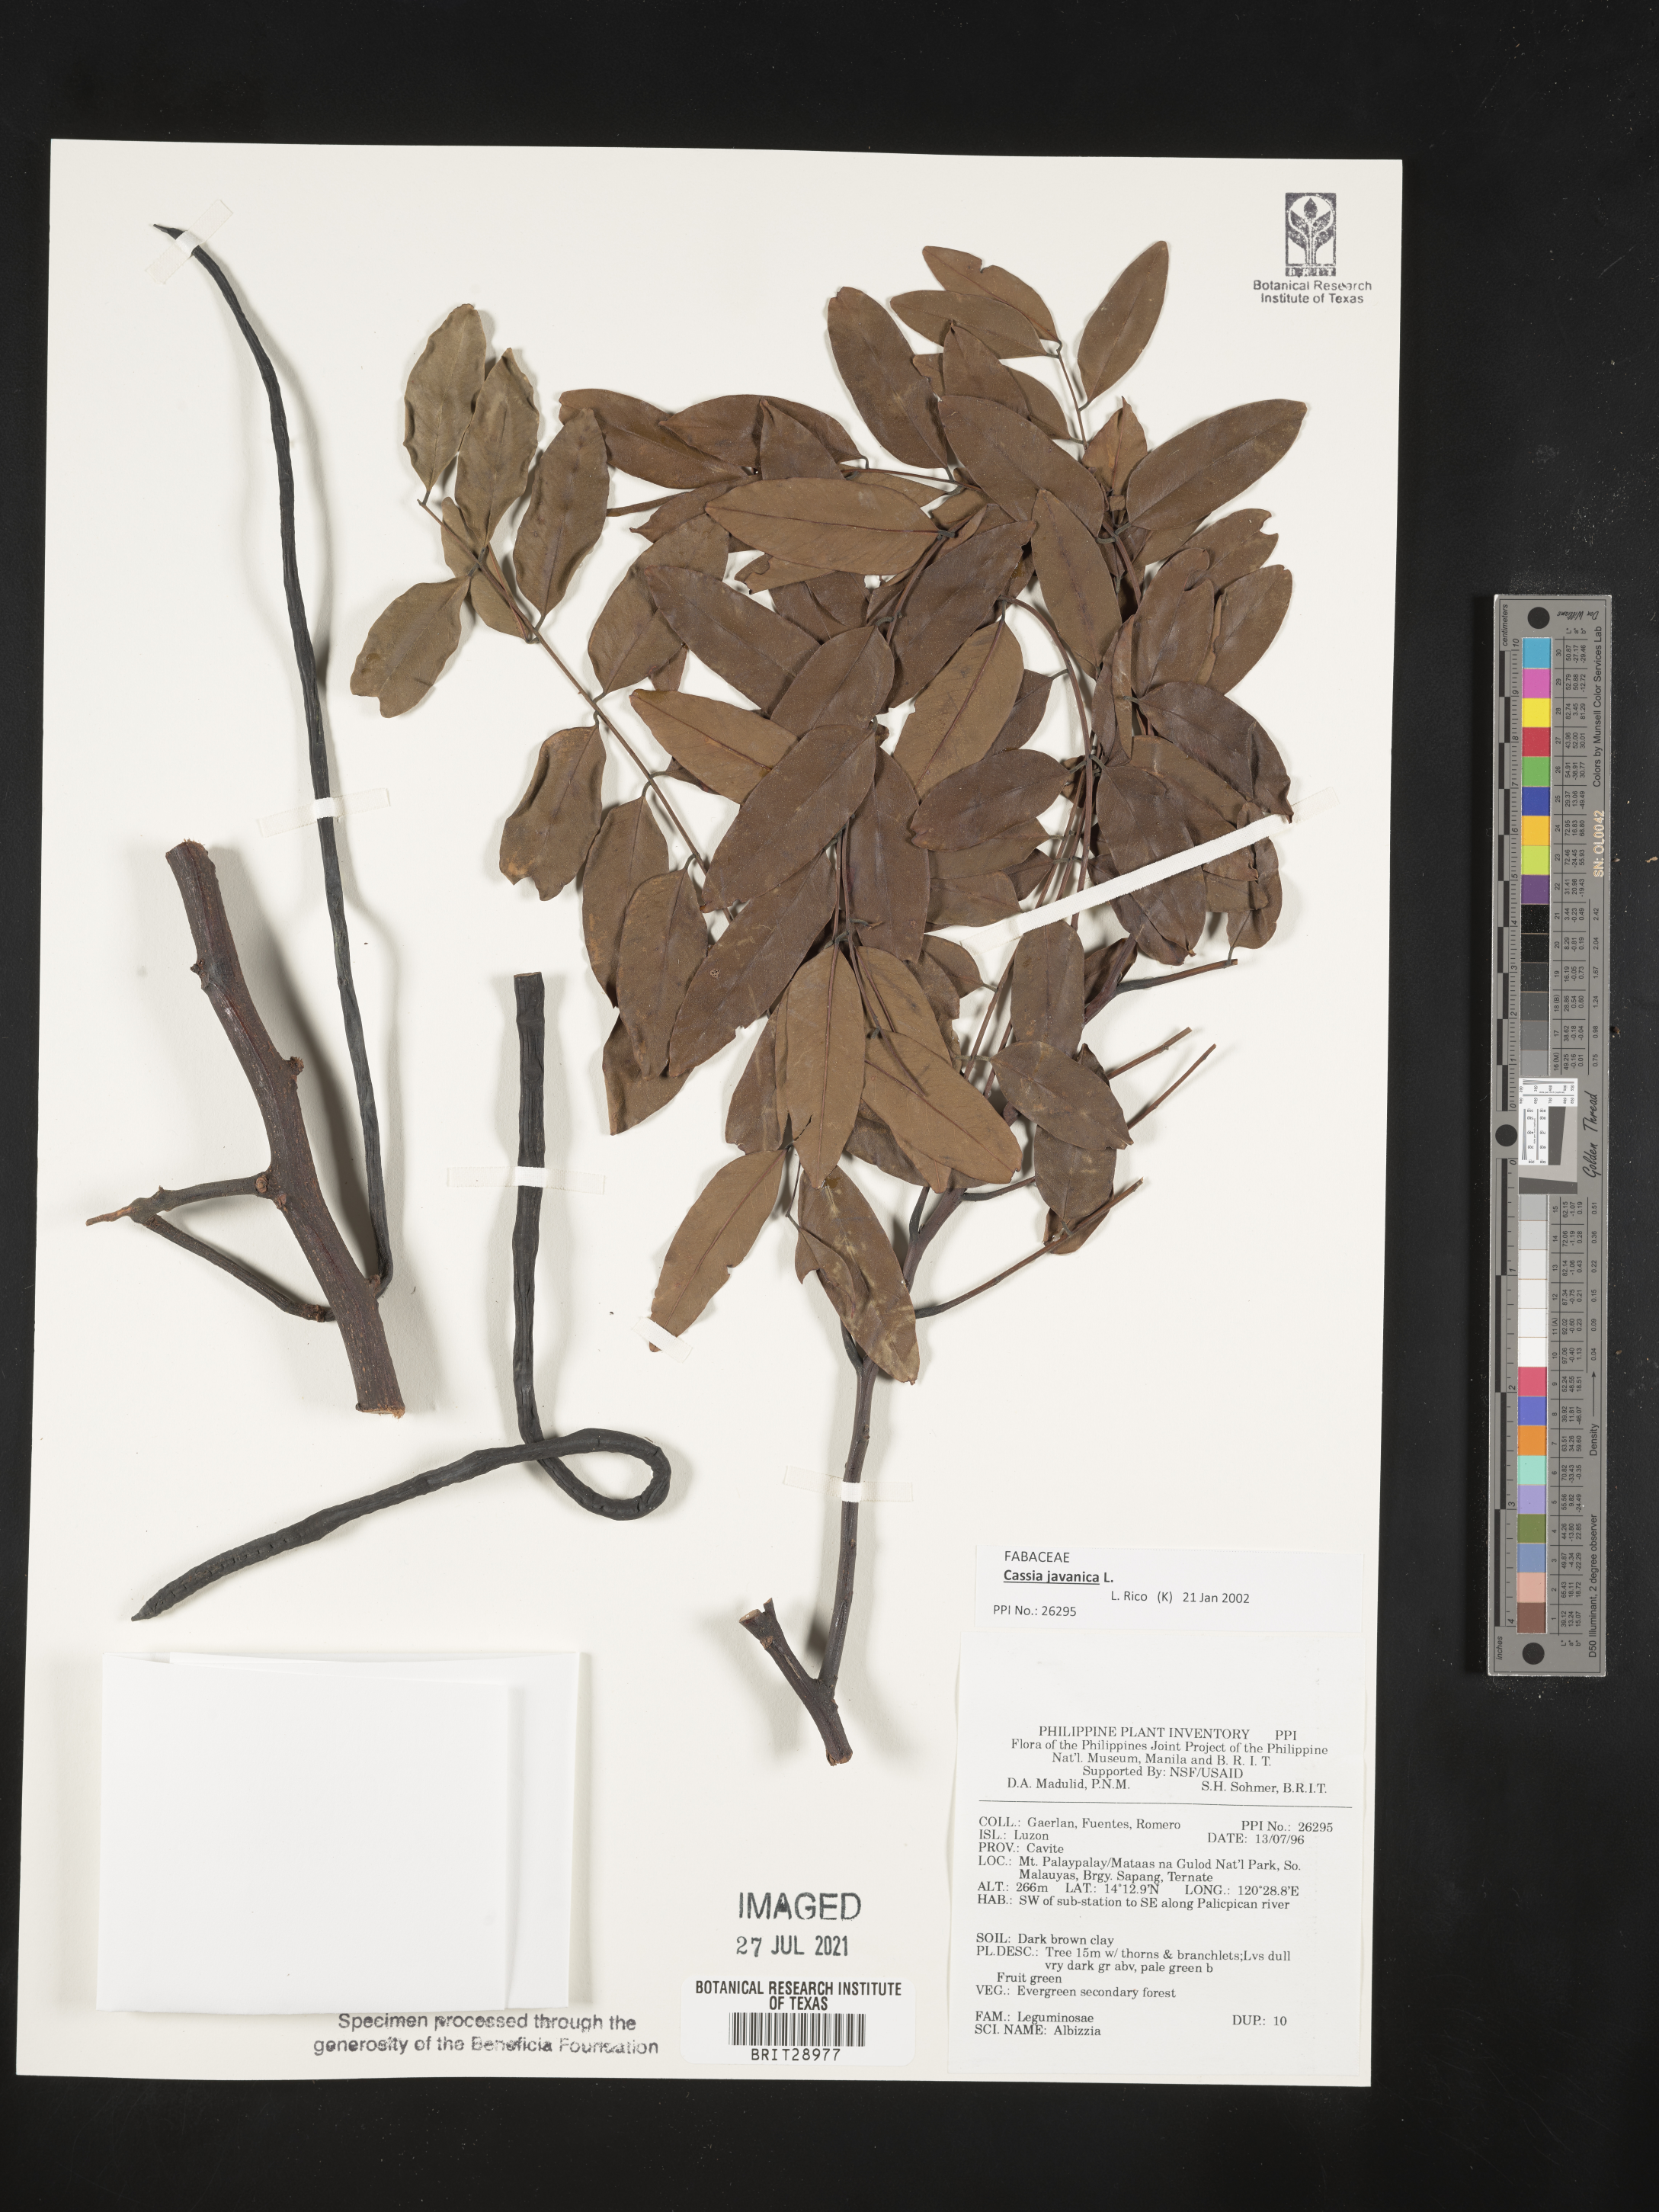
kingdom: Plantae
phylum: Tracheophyta
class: Magnoliopsida
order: Fabales
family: Fabaceae
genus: Albizia
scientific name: Albizia
